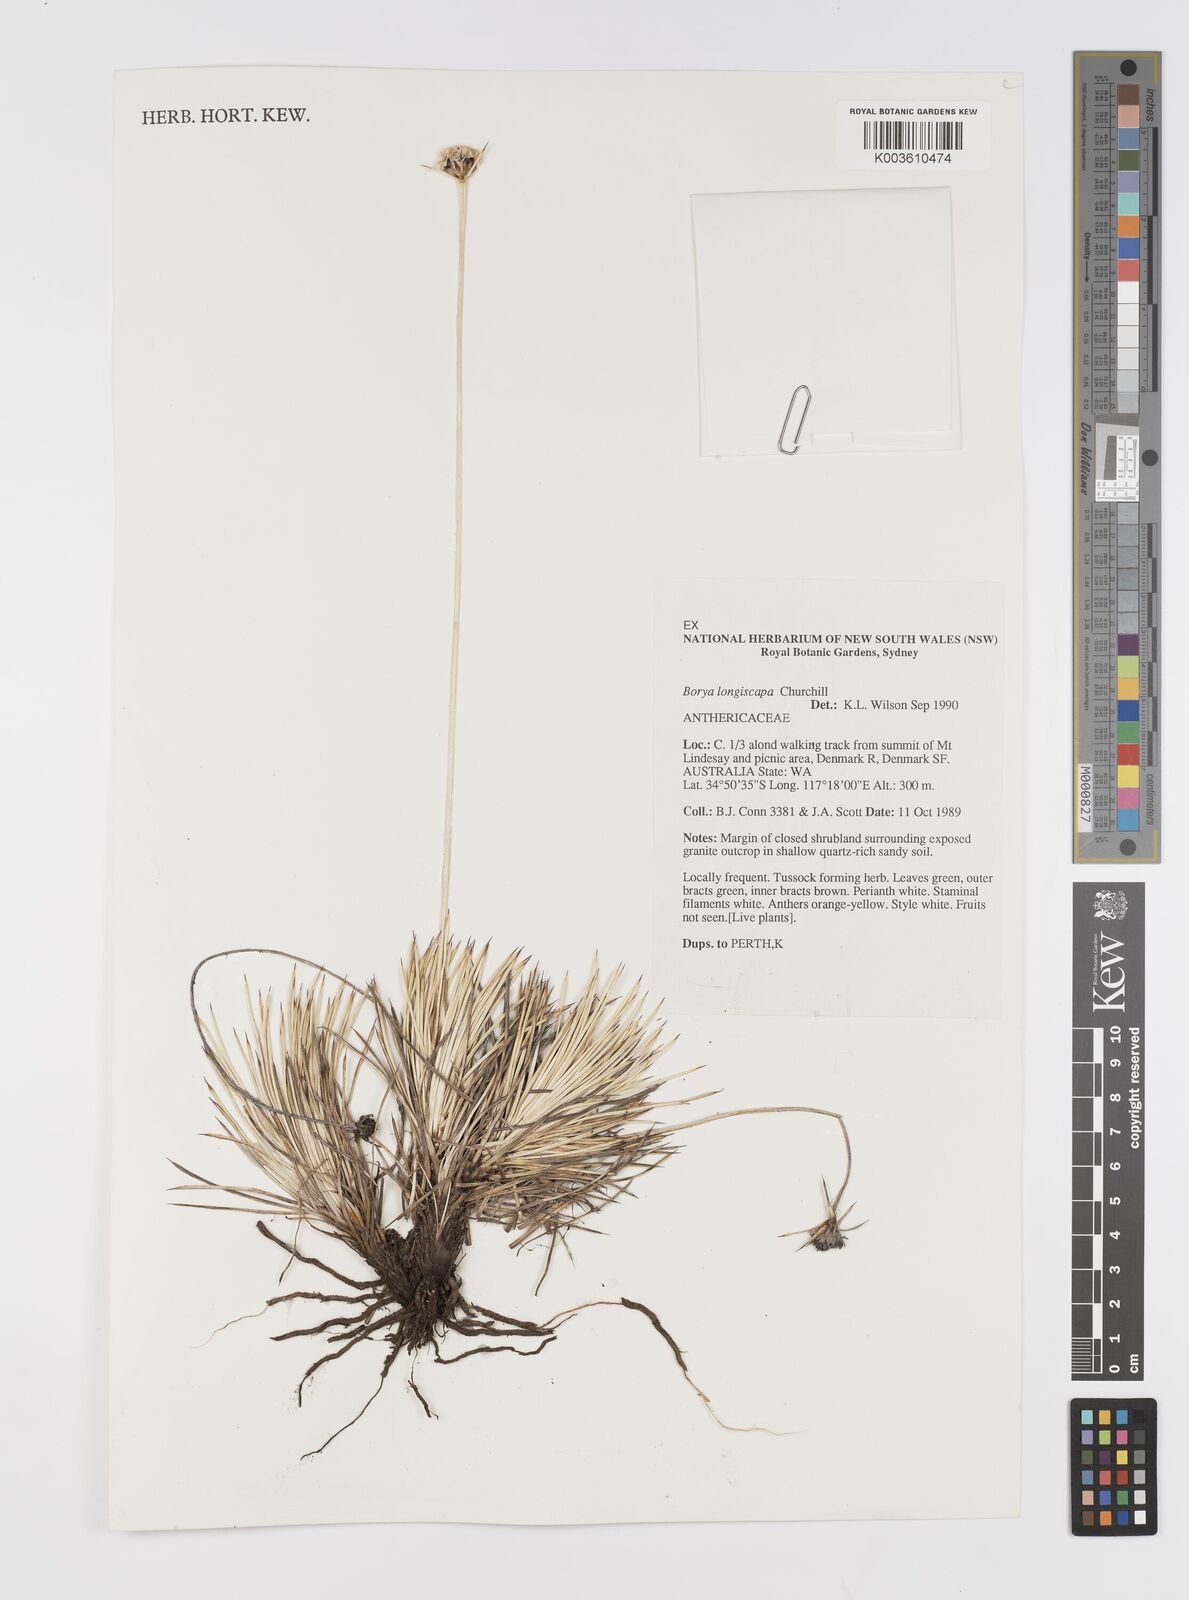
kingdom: Plantae
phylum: Tracheophyta
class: Liliopsida
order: Asparagales
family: Boryaceae
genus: Borya
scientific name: Borya longiscapa
